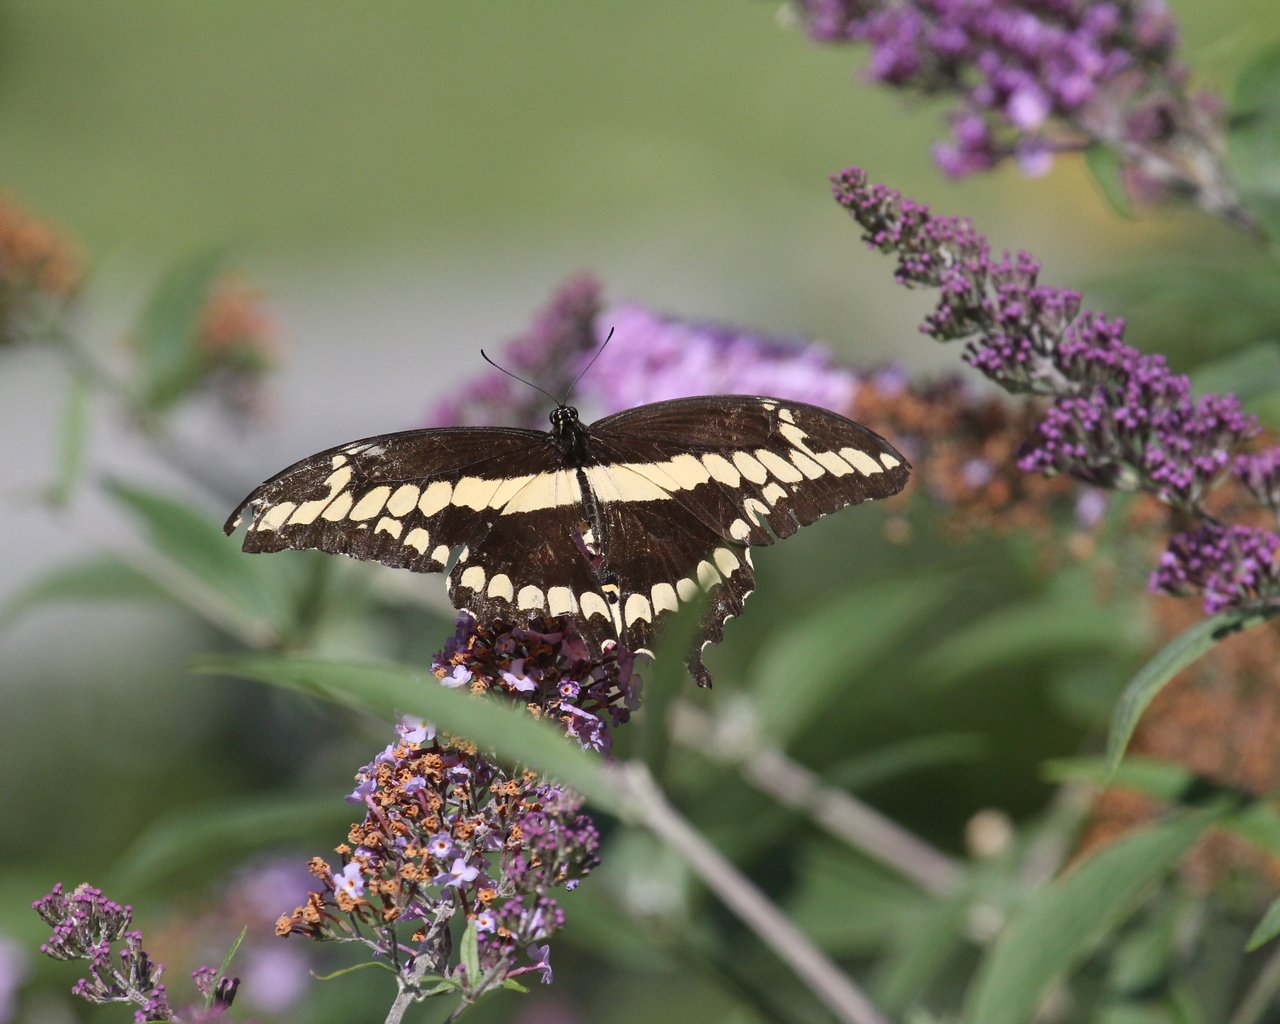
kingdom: Animalia
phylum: Arthropoda
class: Insecta
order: Lepidoptera
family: Papilionidae
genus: Papilio
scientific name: Papilio cresphontes
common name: Eastern Giant Swallowtail
